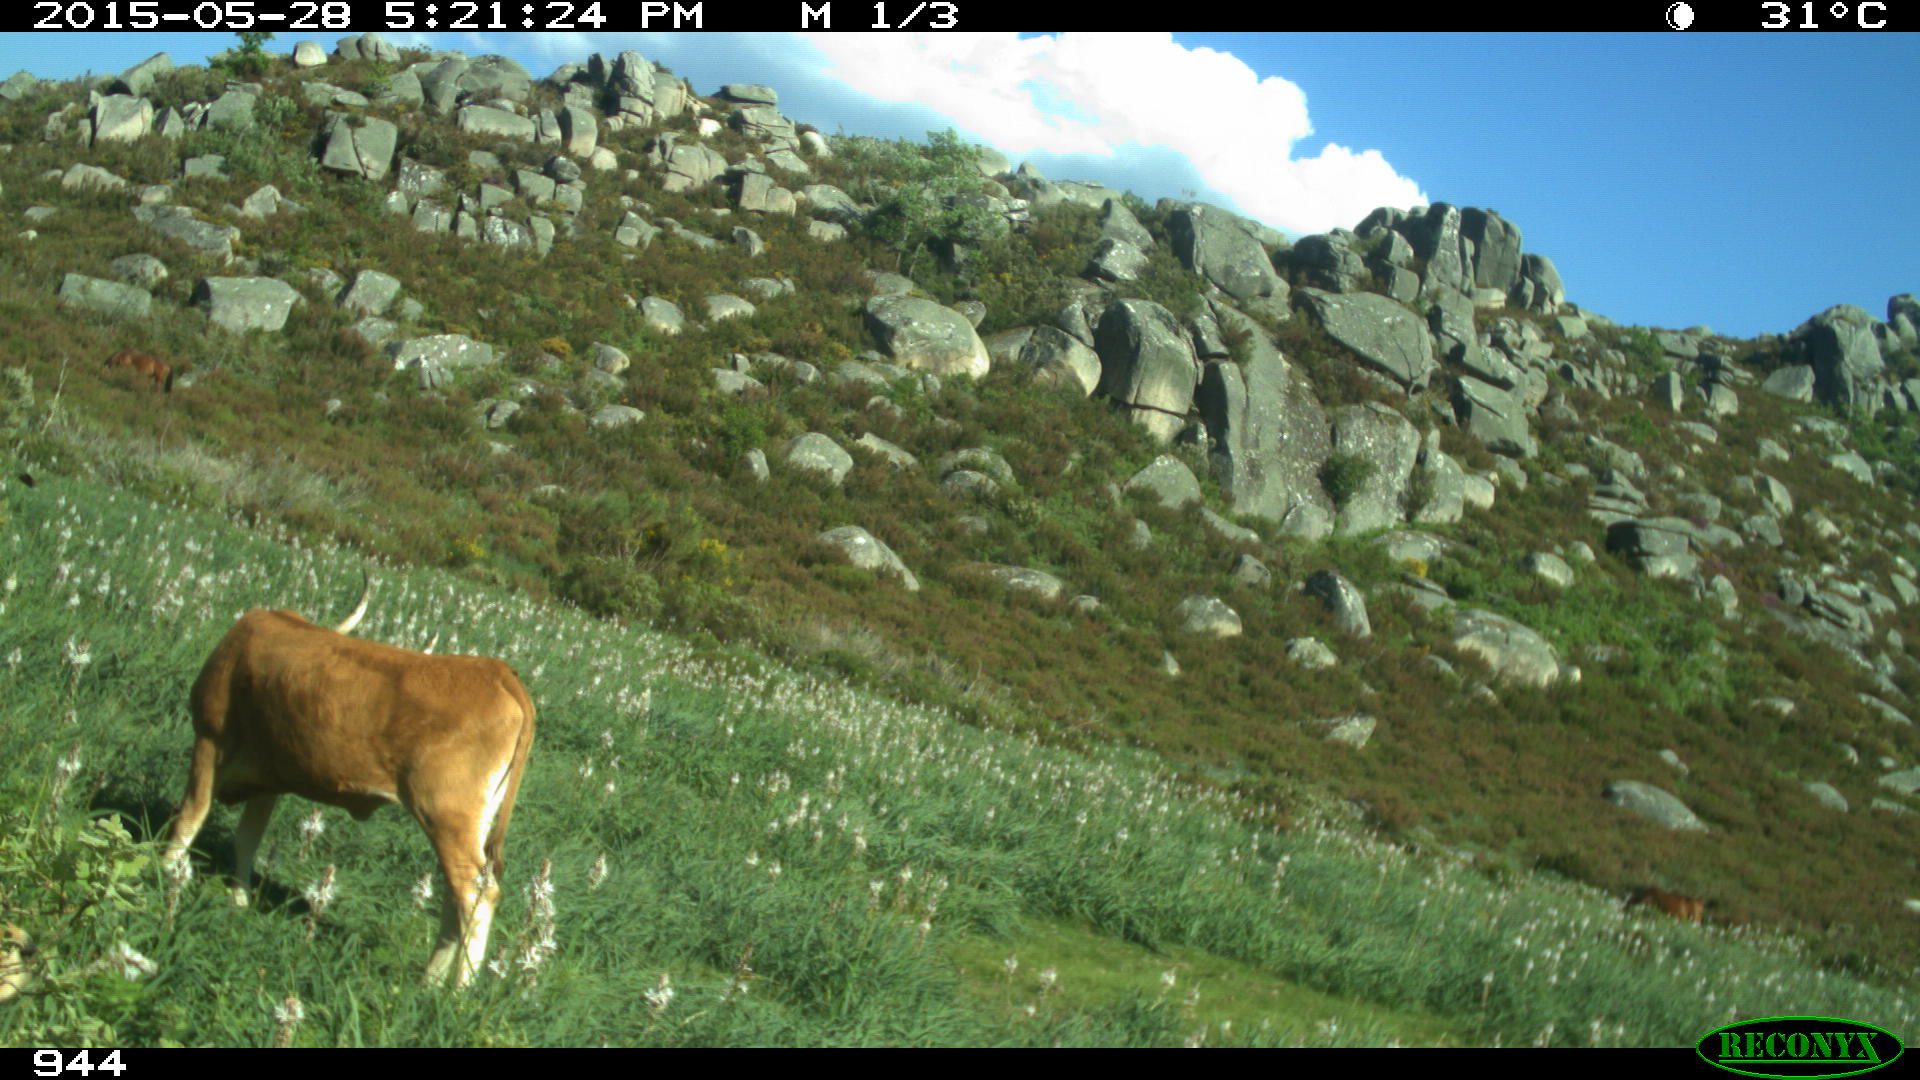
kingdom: Animalia
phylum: Chordata
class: Mammalia
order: Artiodactyla
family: Bovidae
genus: Bos
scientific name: Bos taurus
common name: Domesticated cattle
